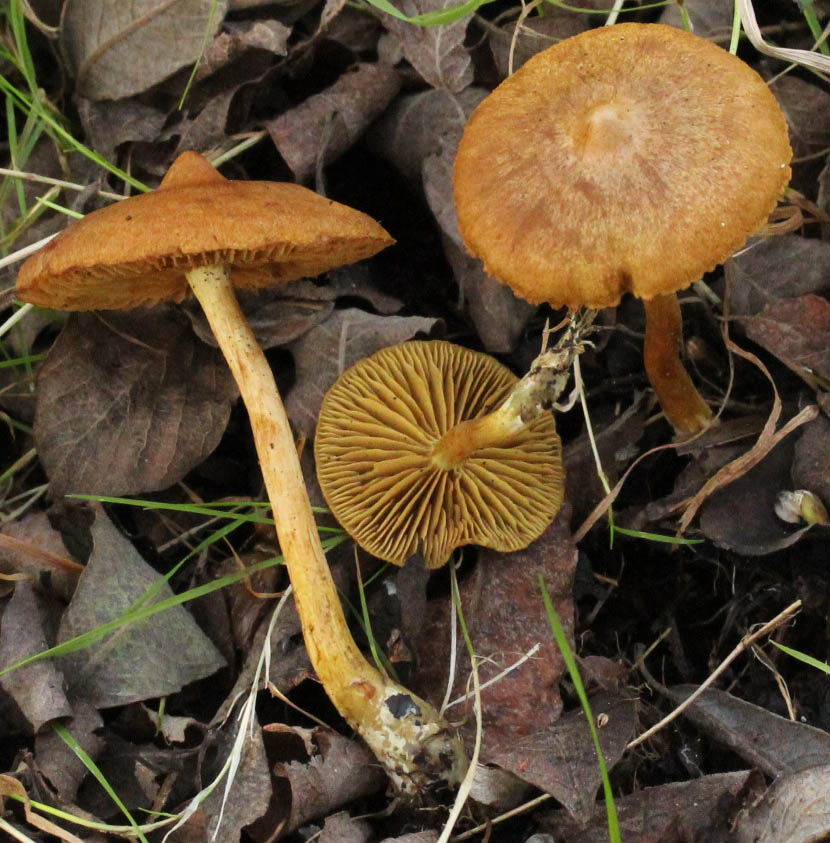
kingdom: Fungi
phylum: Basidiomycota
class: Agaricomycetes
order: Agaricales
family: Cortinariaceae
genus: Cortinarius
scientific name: Cortinarius uliginosus
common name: mose-slørhat
